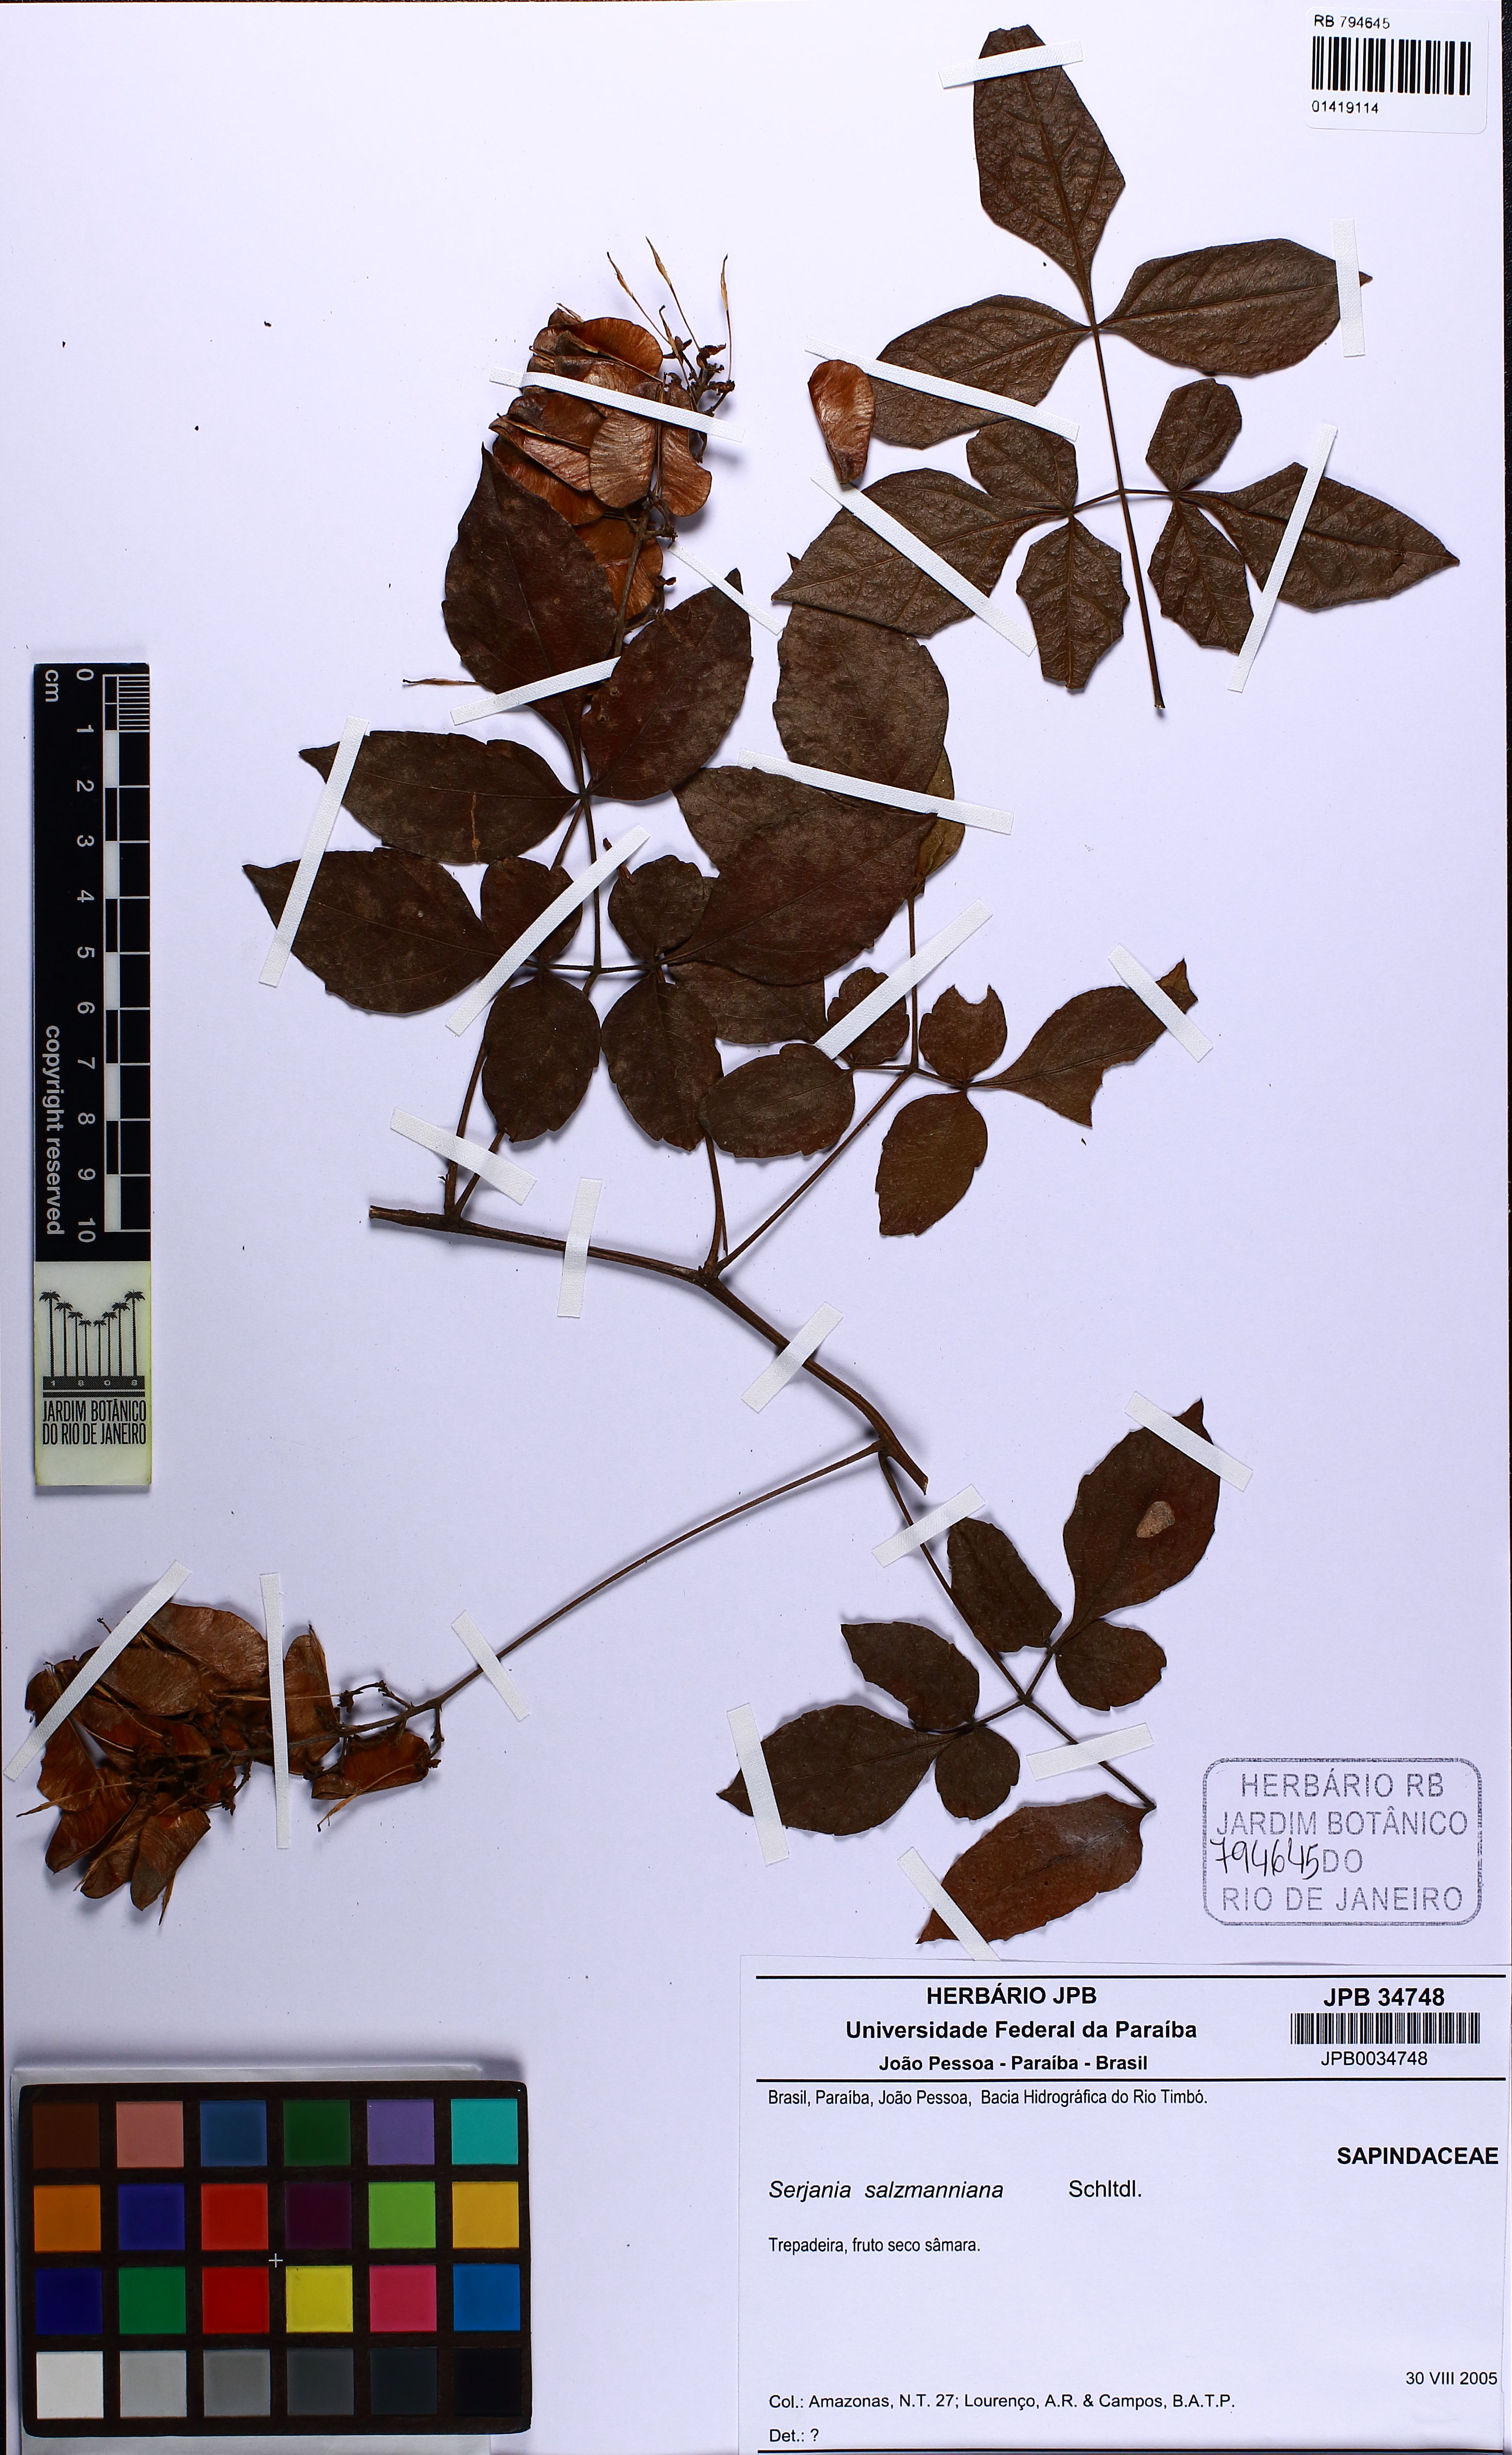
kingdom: Plantae
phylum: Tracheophyta
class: Magnoliopsida
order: Sapindales
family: Sapindaceae
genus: Serjania
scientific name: Serjania salzmanniana
